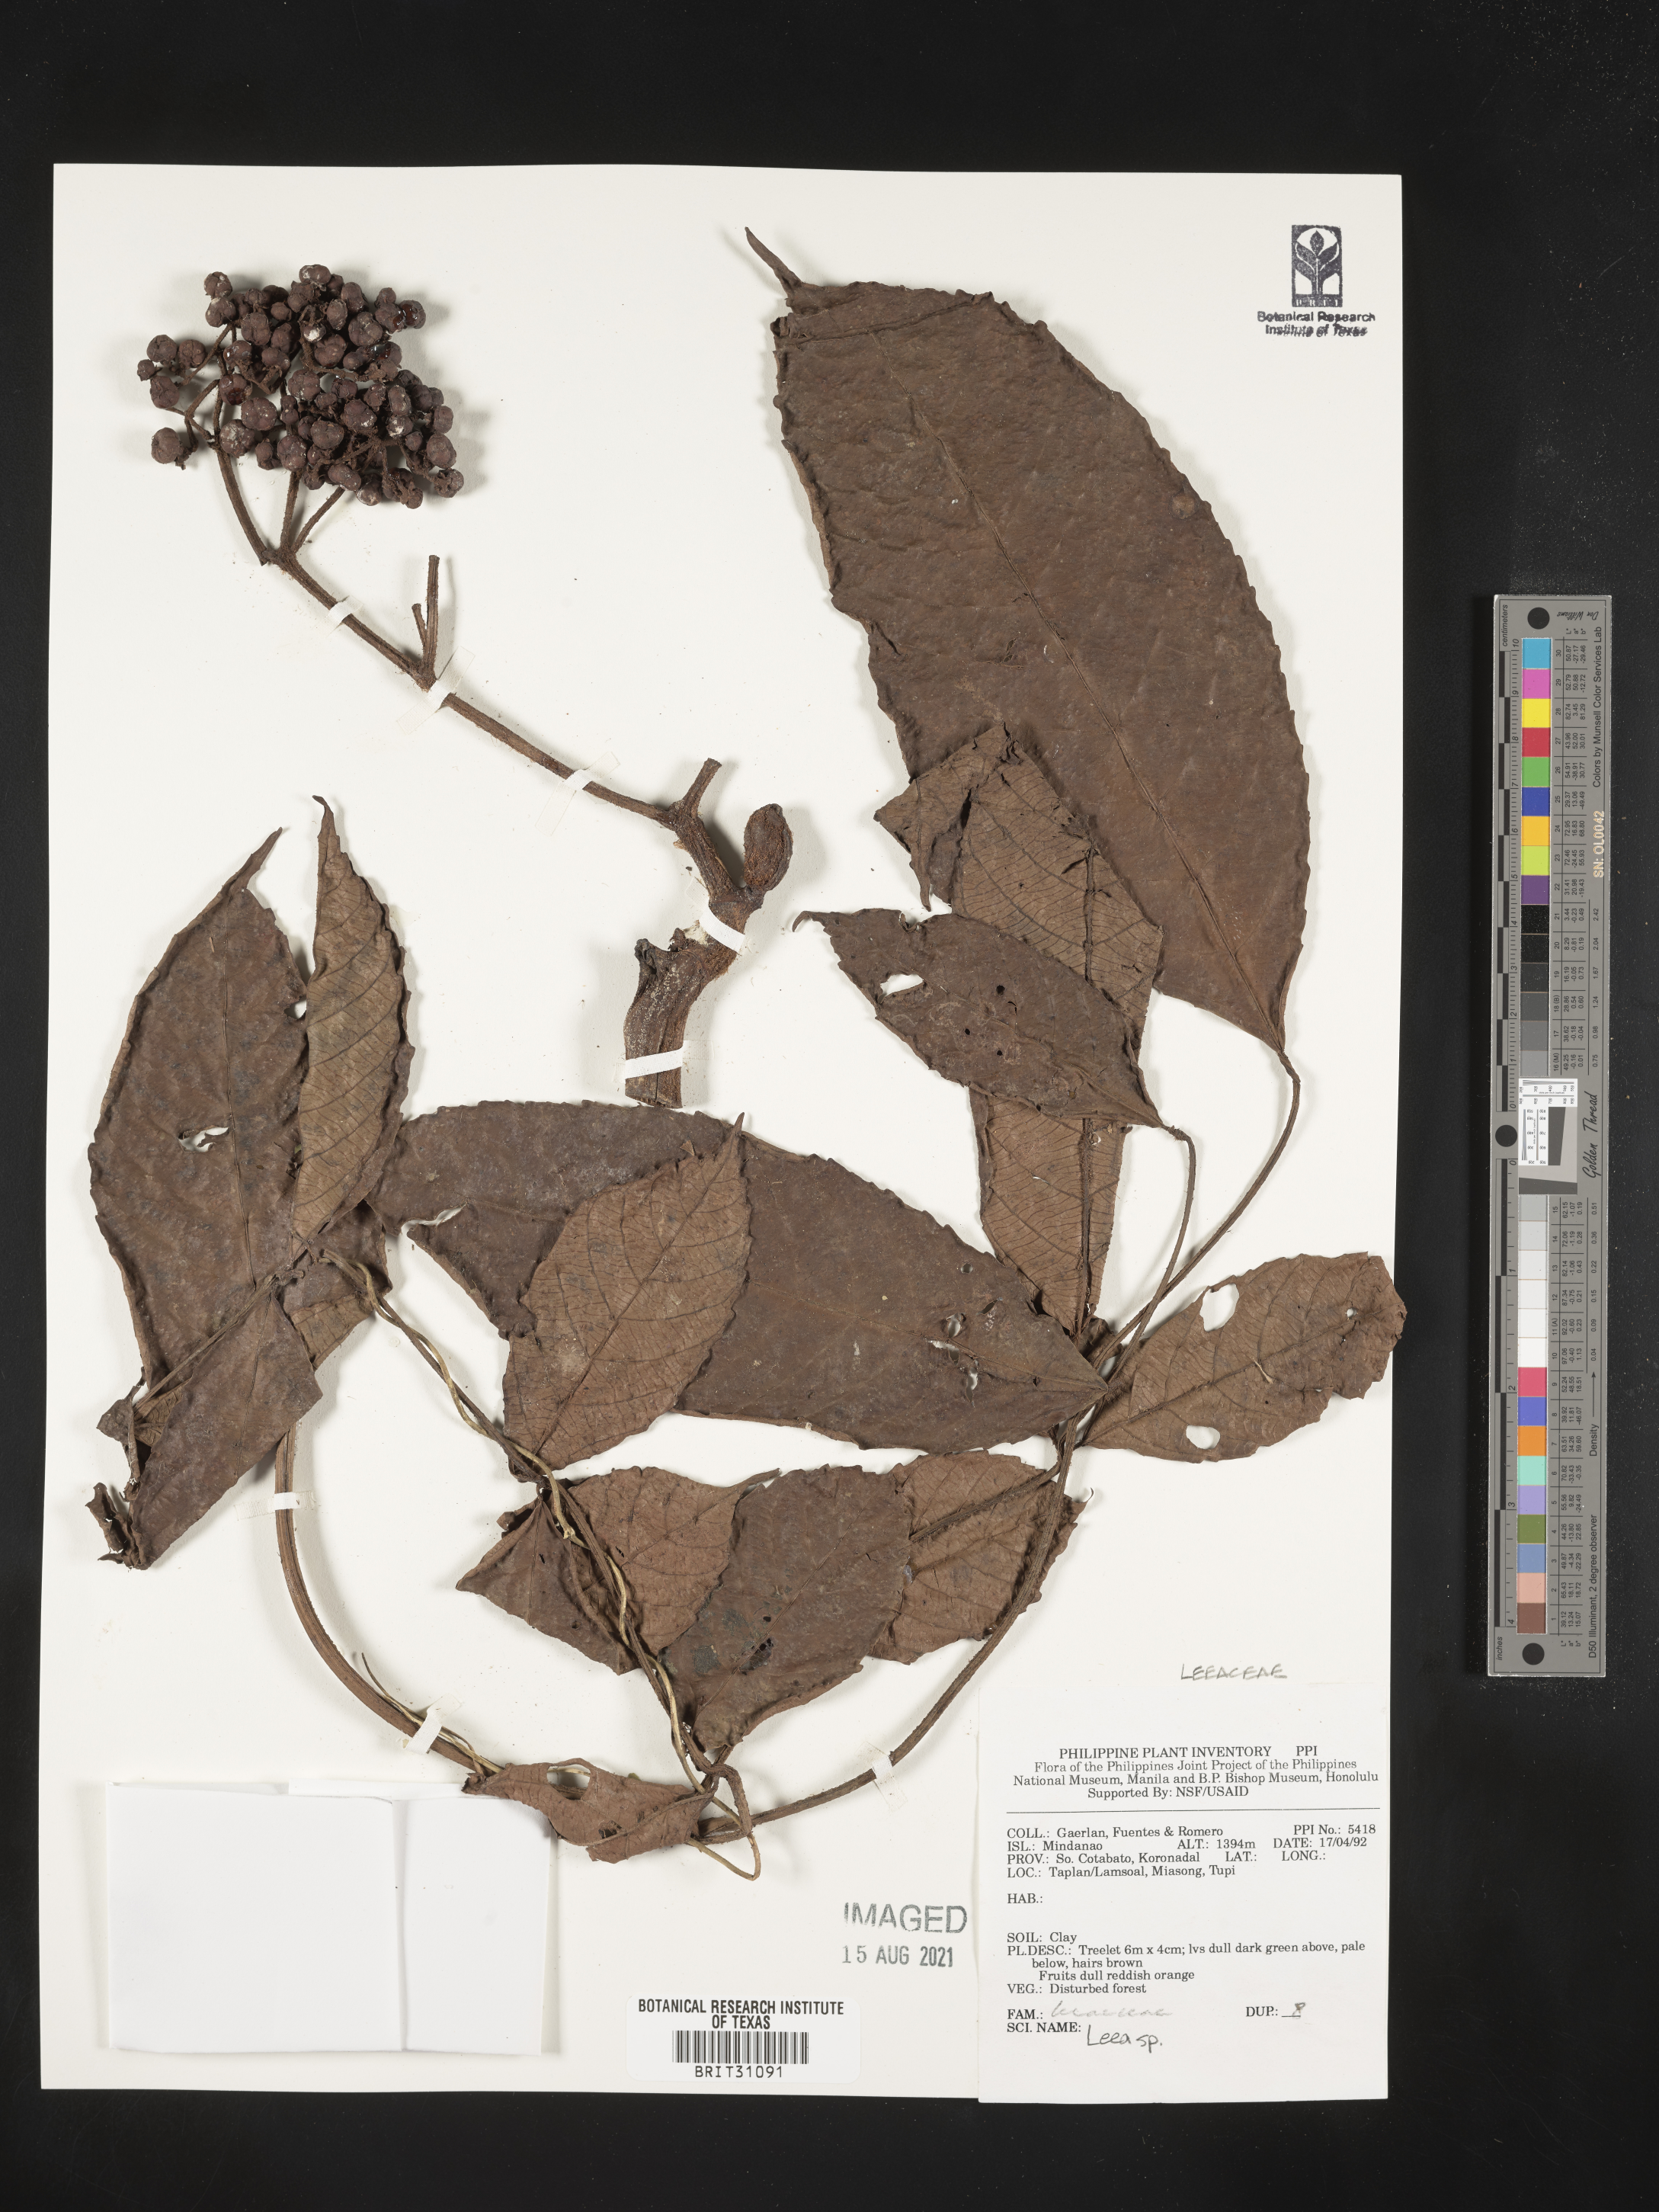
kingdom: Plantae
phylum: Tracheophyta
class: Magnoliopsida
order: Vitales
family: Vitaceae
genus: Leea
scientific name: Leea
